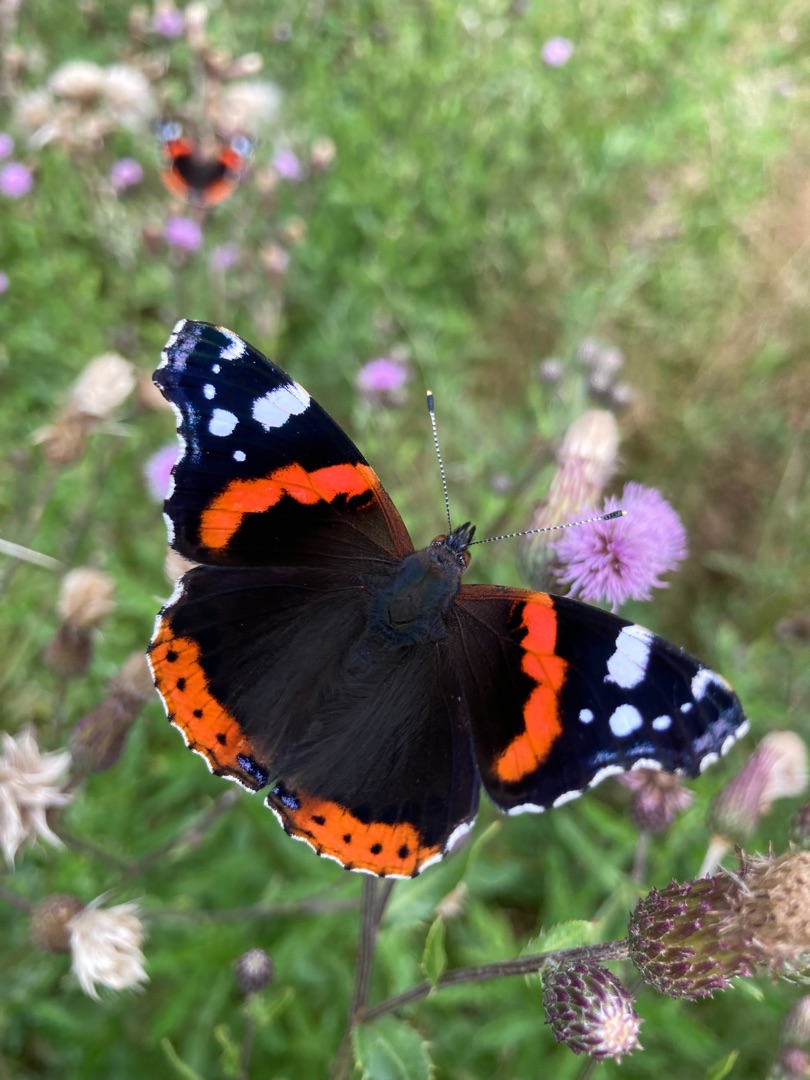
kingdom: Animalia
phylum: Arthropoda
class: Insecta
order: Lepidoptera
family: Nymphalidae
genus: Vanessa
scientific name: Vanessa atalanta
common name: Admiral
